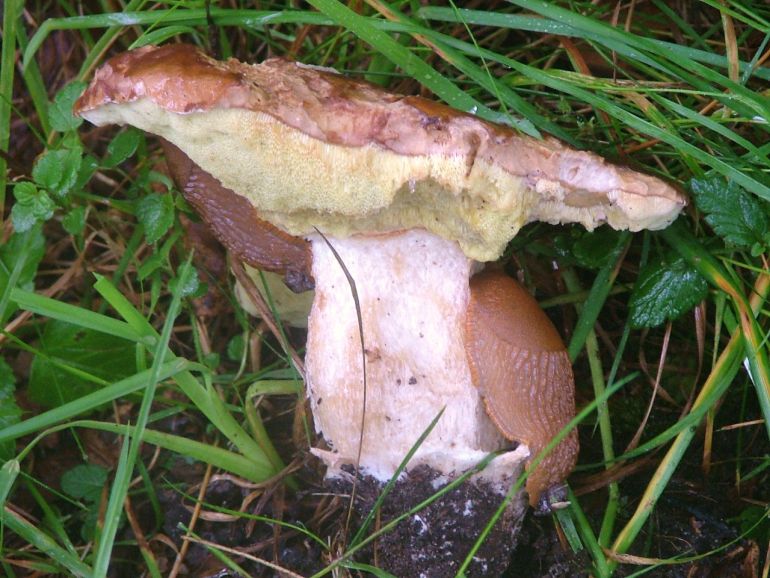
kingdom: Fungi
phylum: Basidiomycota
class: Agaricomycetes
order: Boletales
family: Boletaceae
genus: Boletus
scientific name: Boletus edulis
